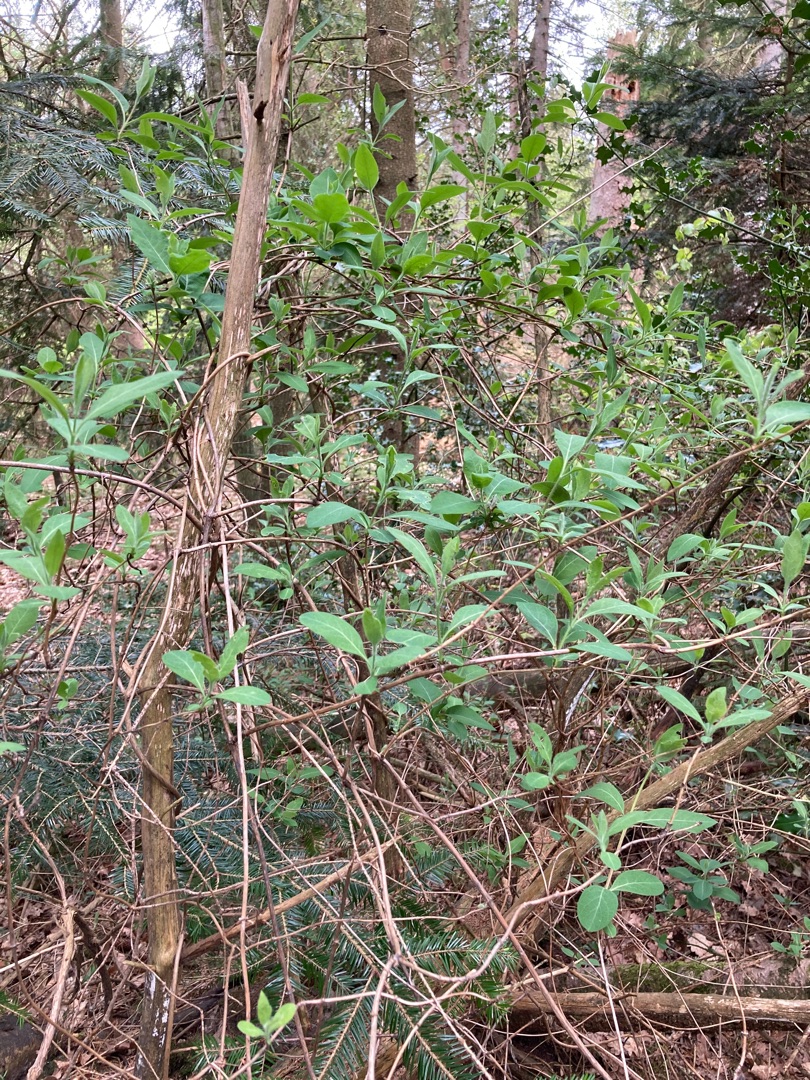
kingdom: Plantae
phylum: Tracheophyta
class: Magnoliopsida
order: Dipsacales
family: Caprifoliaceae
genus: Lonicera
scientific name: Lonicera periclymenum
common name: Almindelig gedeblad
